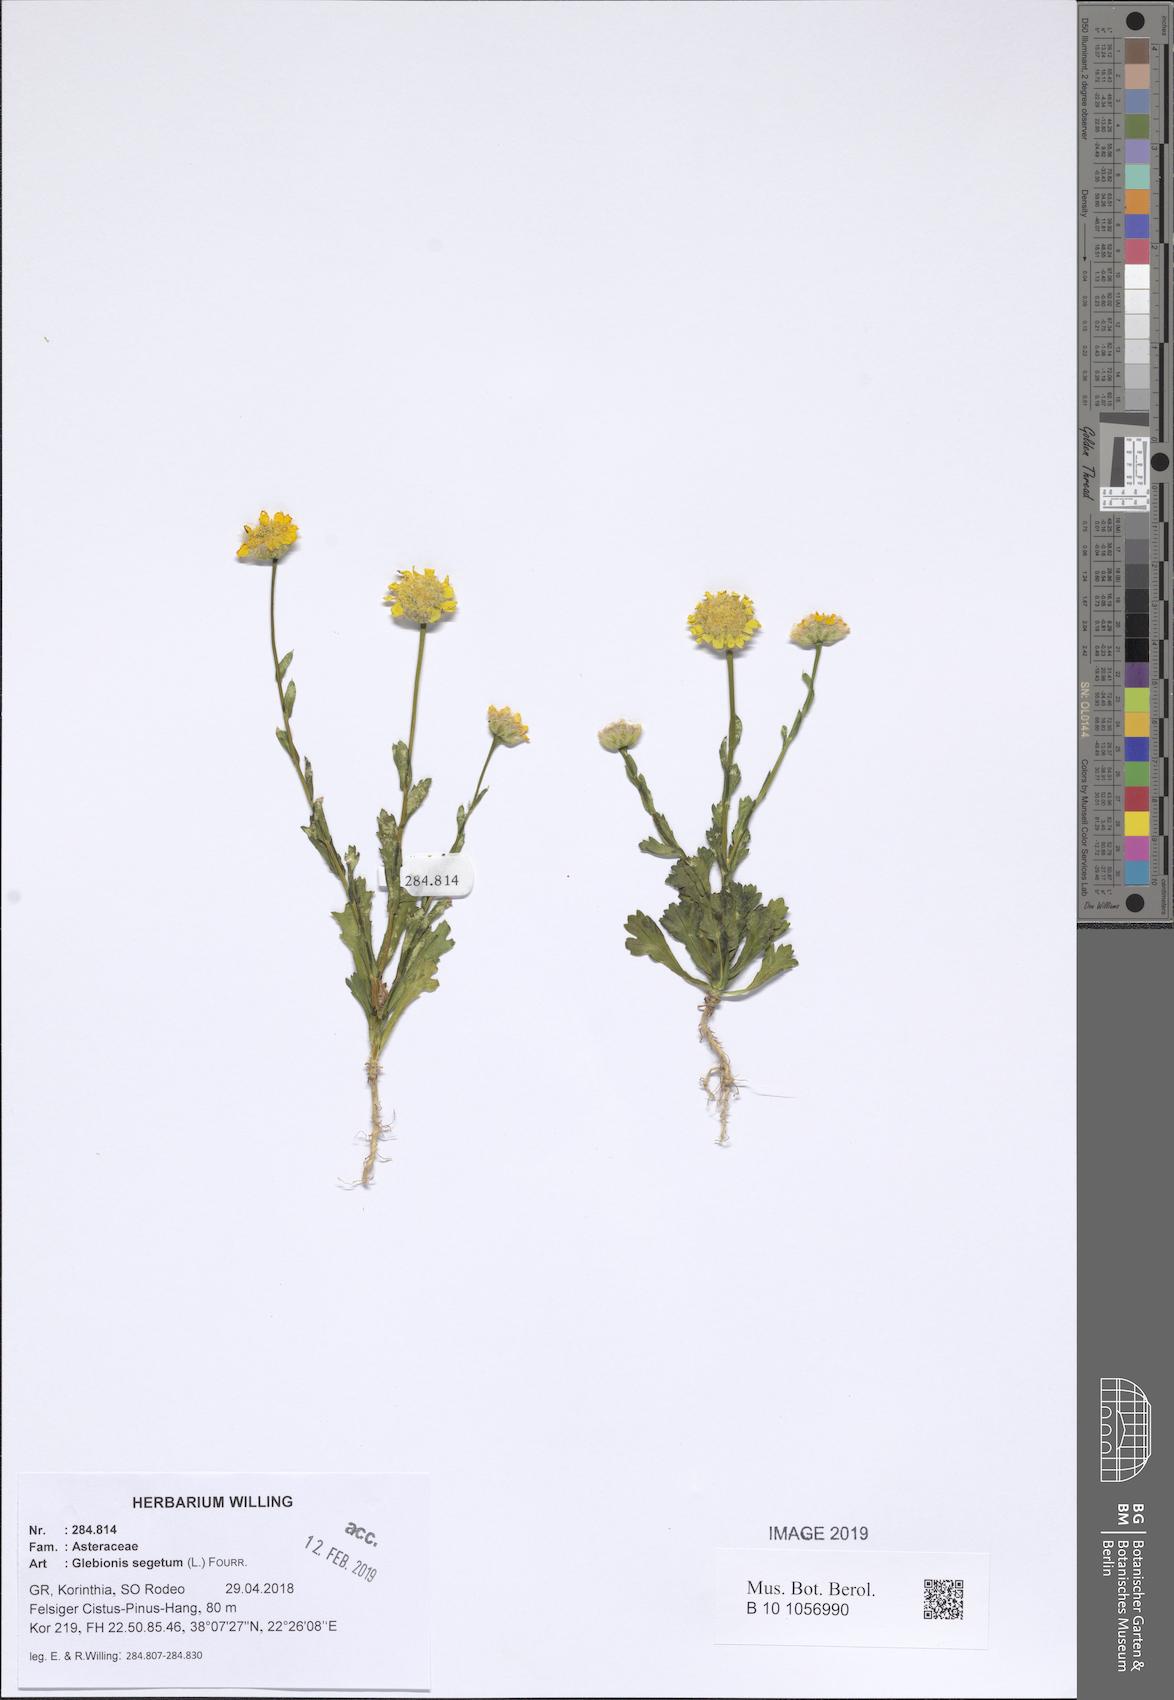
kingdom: Plantae
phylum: Tracheophyta
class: Magnoliopsida
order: Asterales
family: Asteraceae
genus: Glebionis
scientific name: Glebionis segetum
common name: Corndaisy
